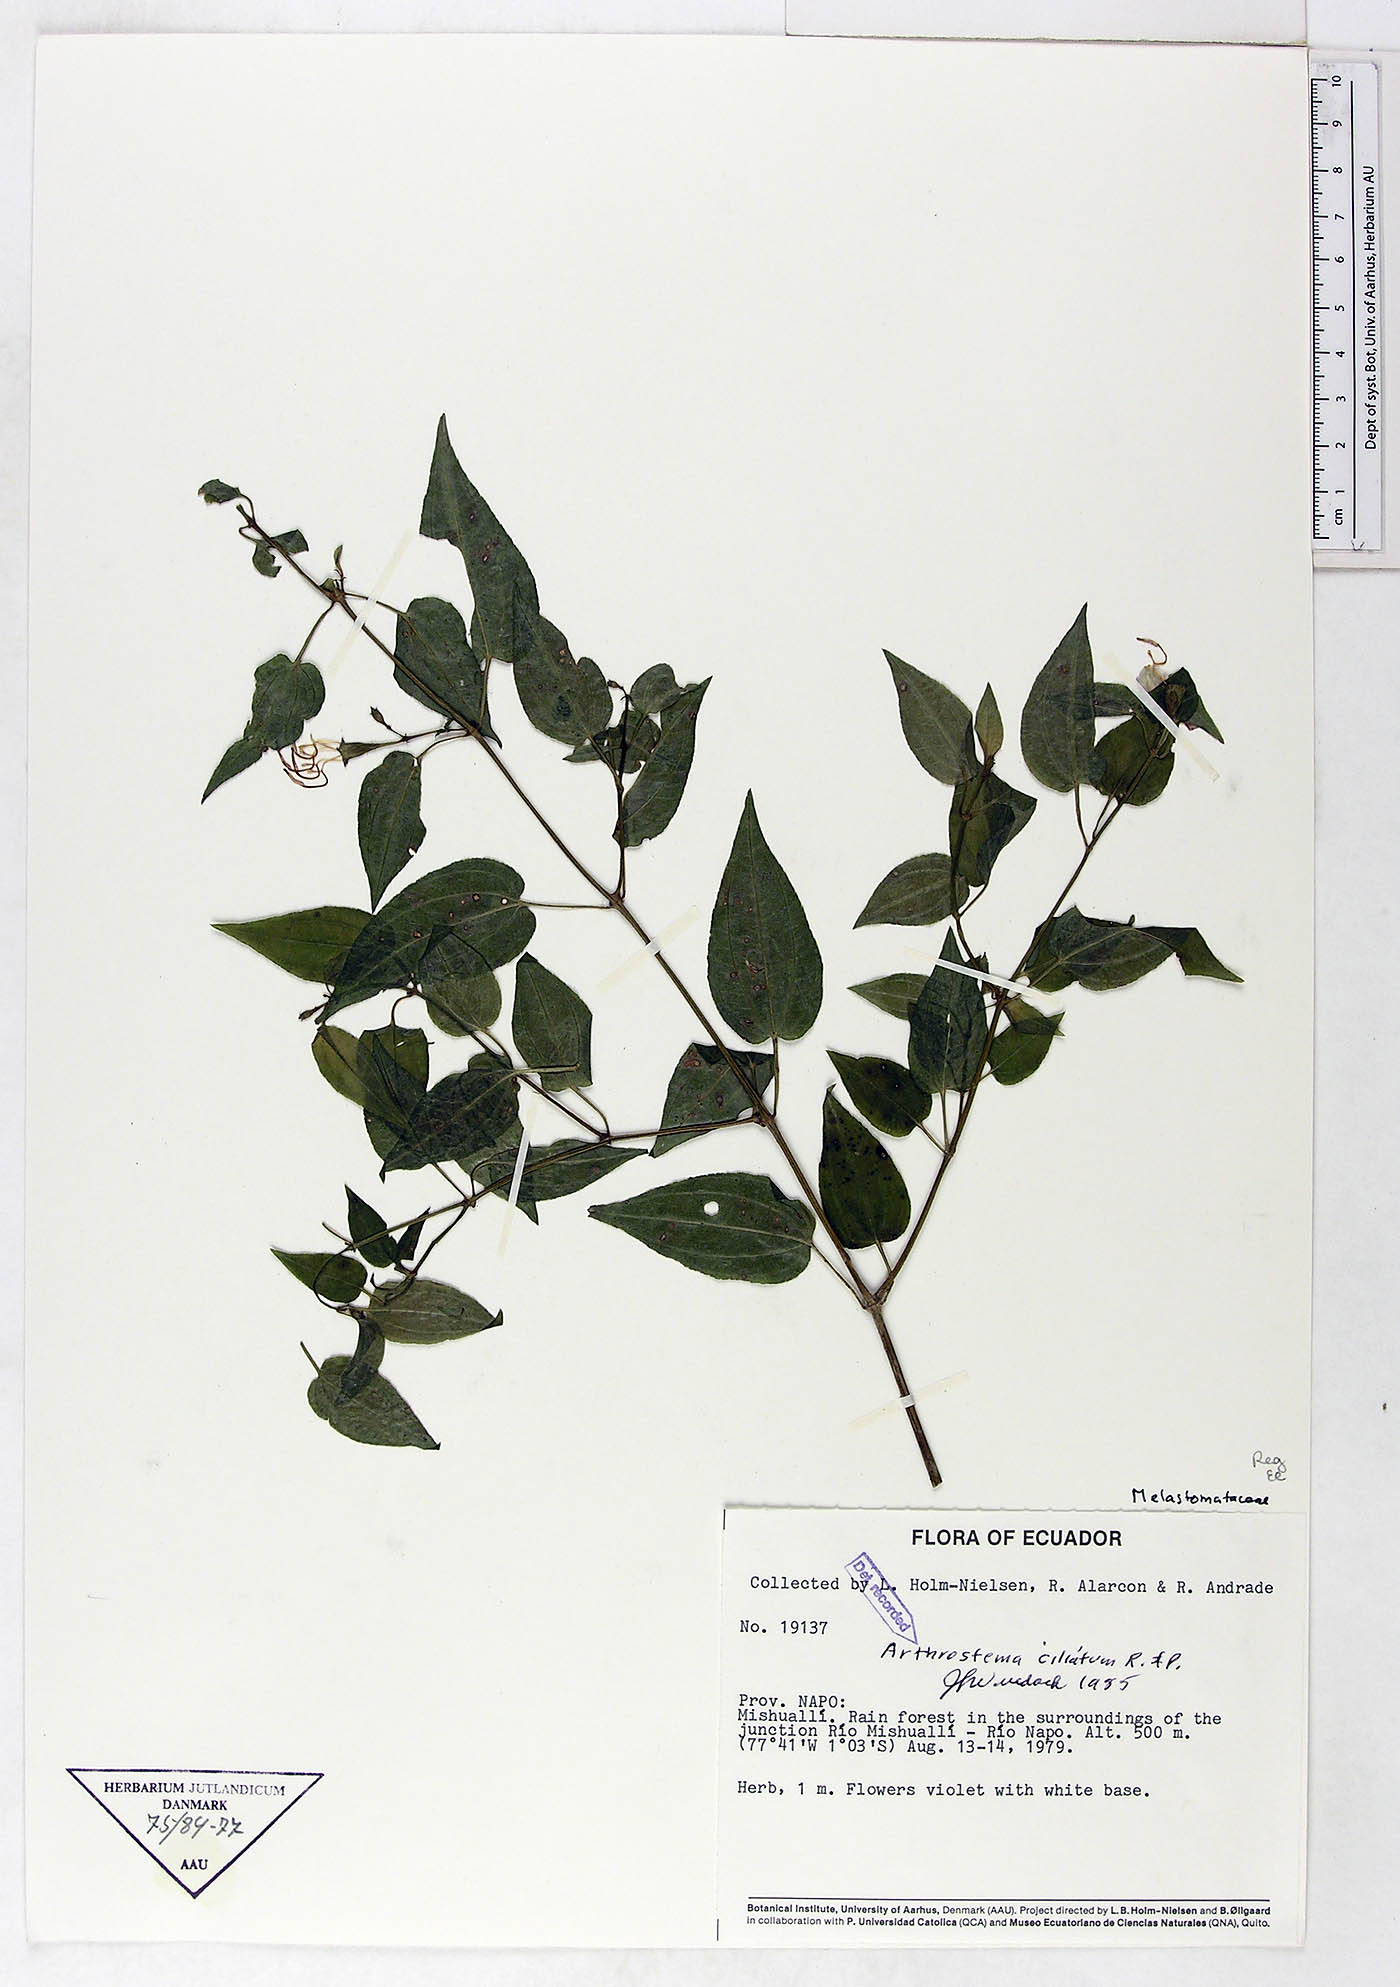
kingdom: Plantae
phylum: Tracheophyta
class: Magnoliopsida
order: Myrtales
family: Melastomataceae
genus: Arthrostemma
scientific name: Arthrostemma ciliatum
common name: Everblooming eavender
